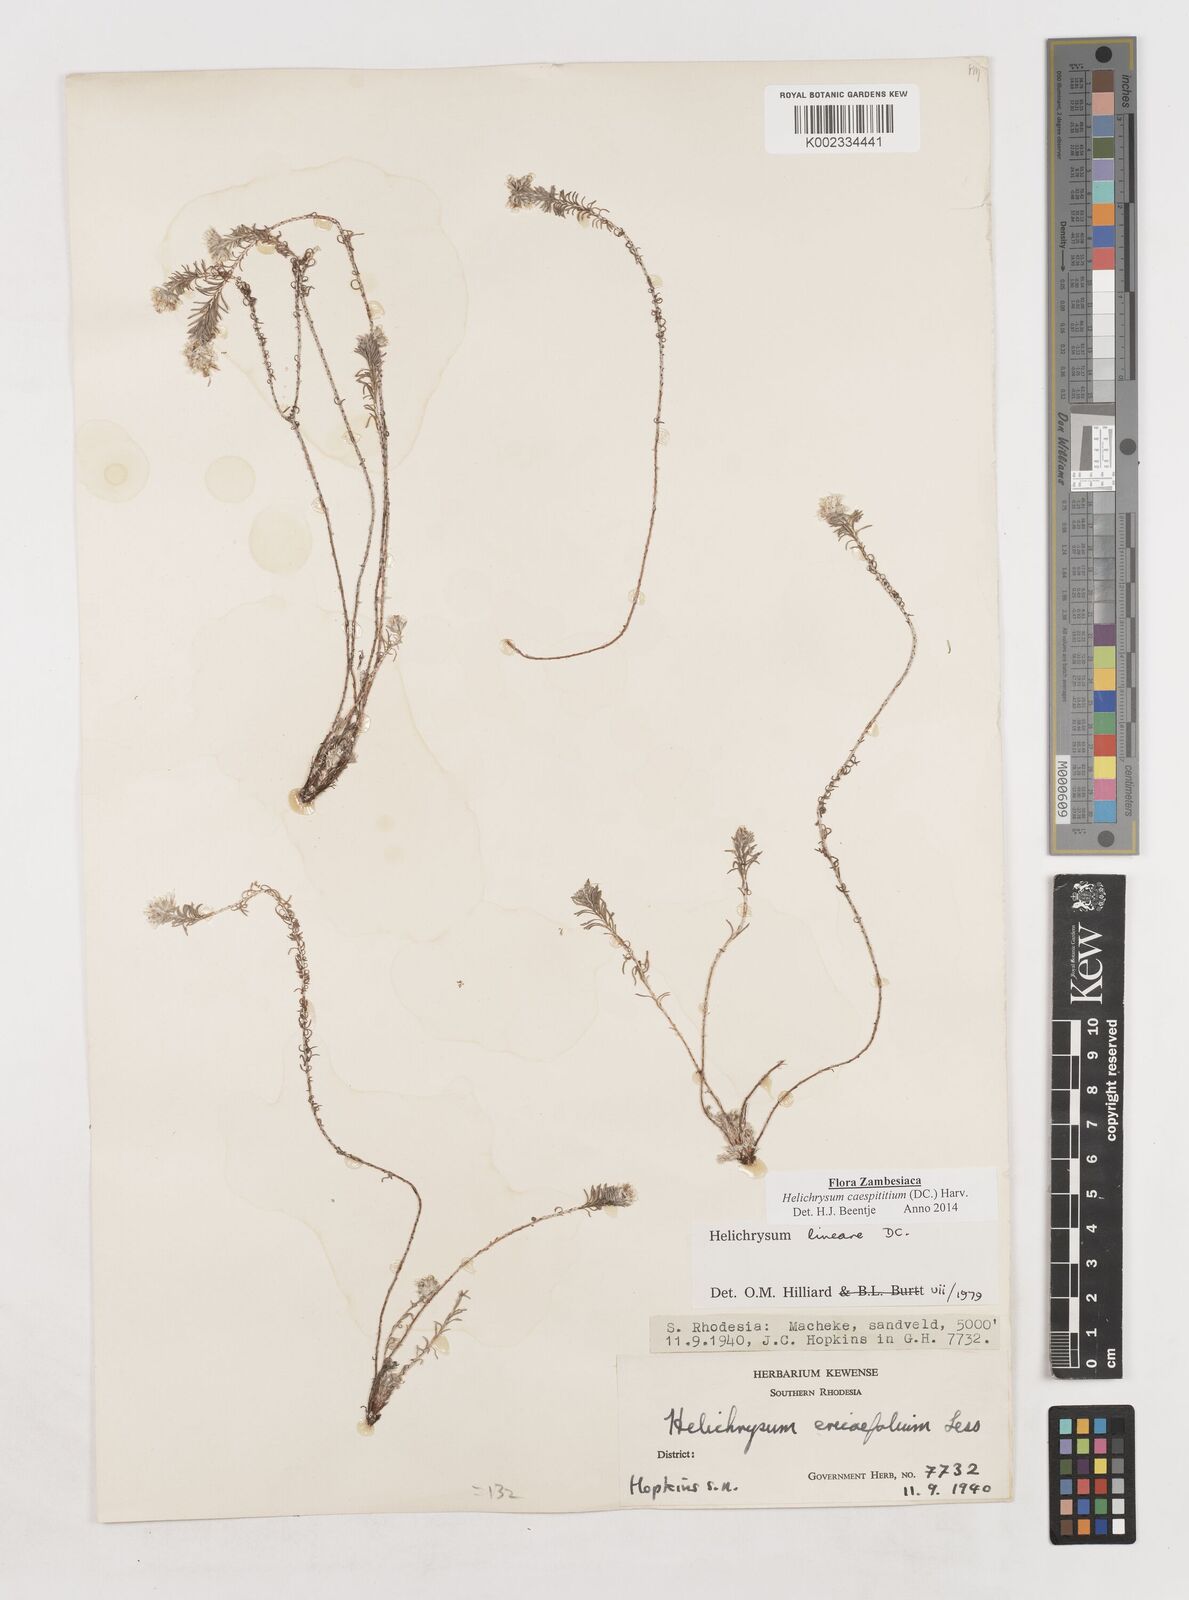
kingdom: Plantae
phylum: Tracheophyta
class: Magnoliopsida
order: Asterales
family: Asteraceae
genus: Helichrysum
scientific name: Helichrysum caespititium
